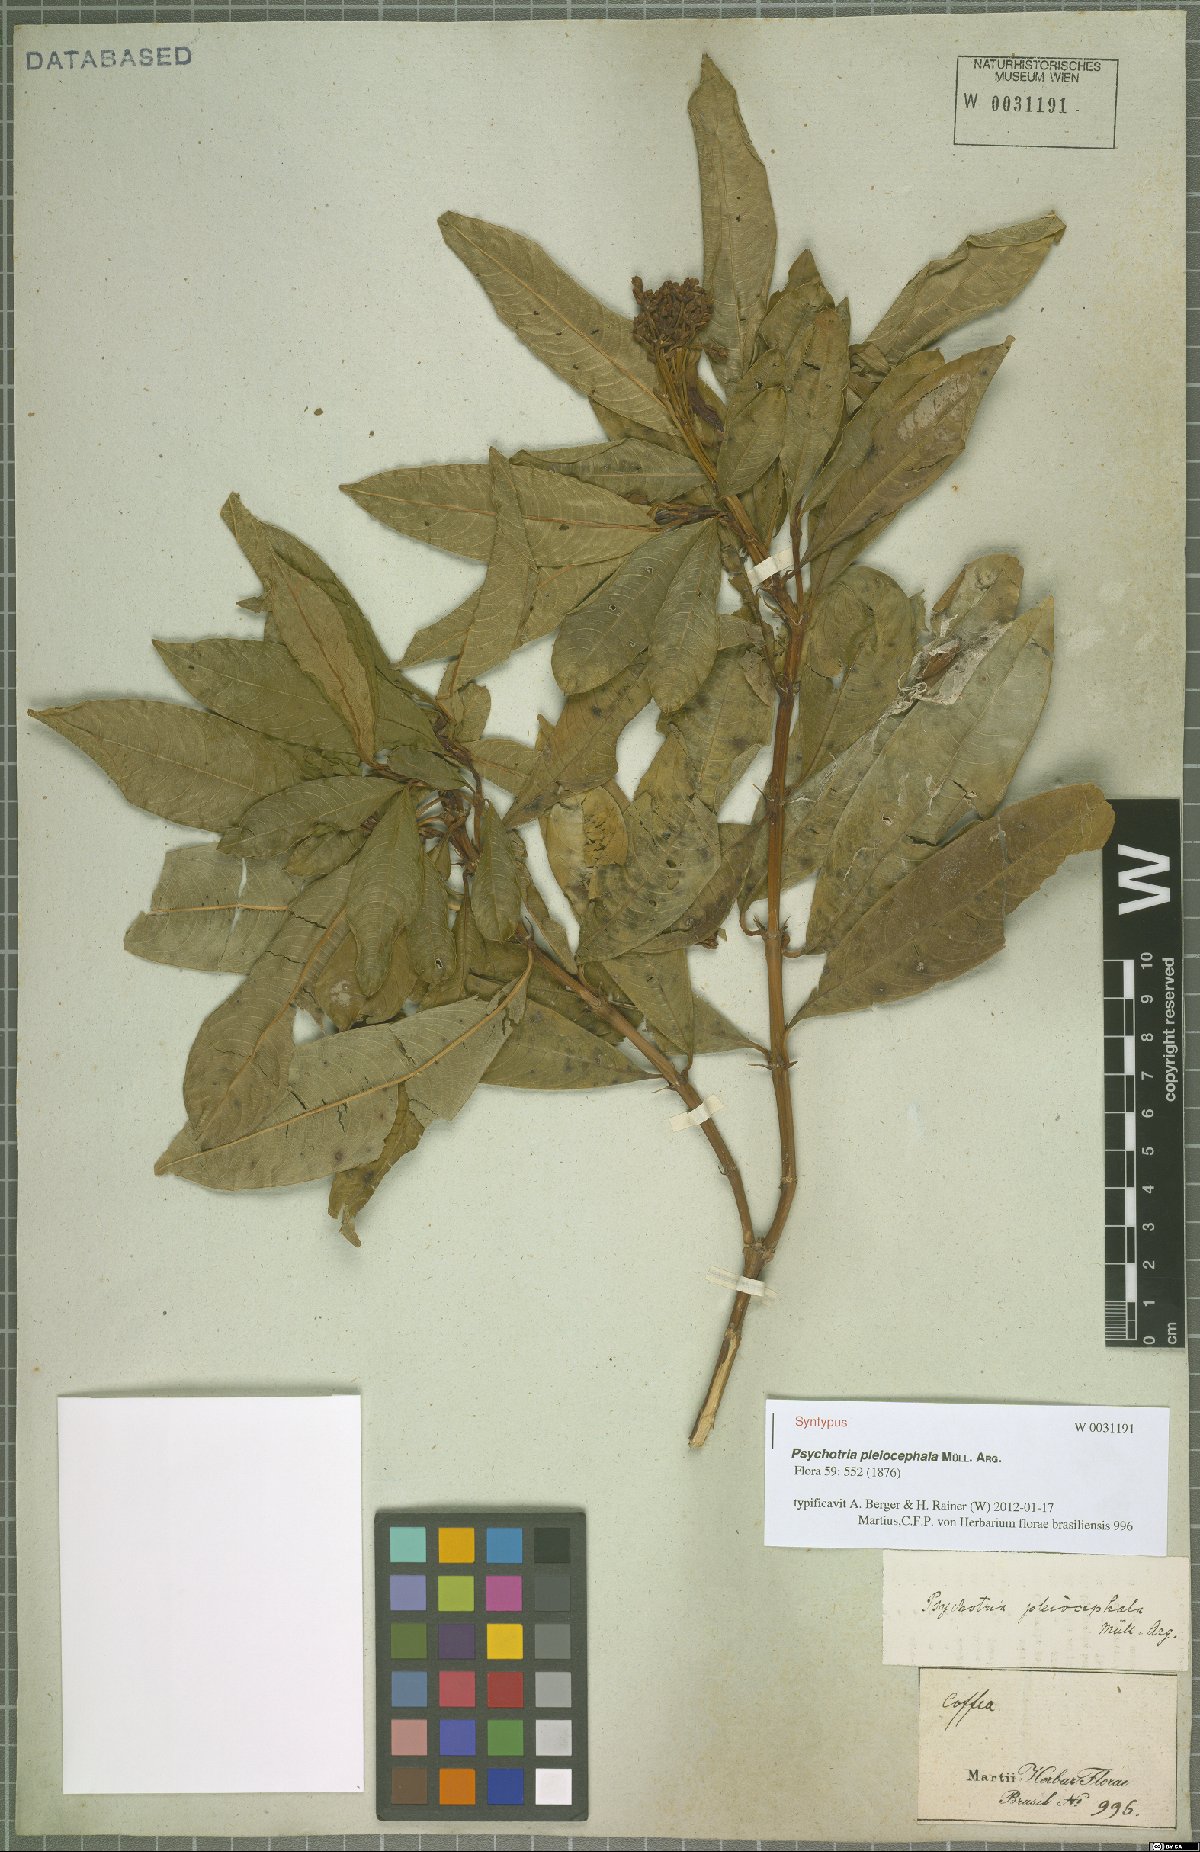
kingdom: Plantae
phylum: Tracheophyta
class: Magnoliopsida
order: Gentianales
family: Rubiaceae
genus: Palicourea
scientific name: Palicourea pleiocephala
